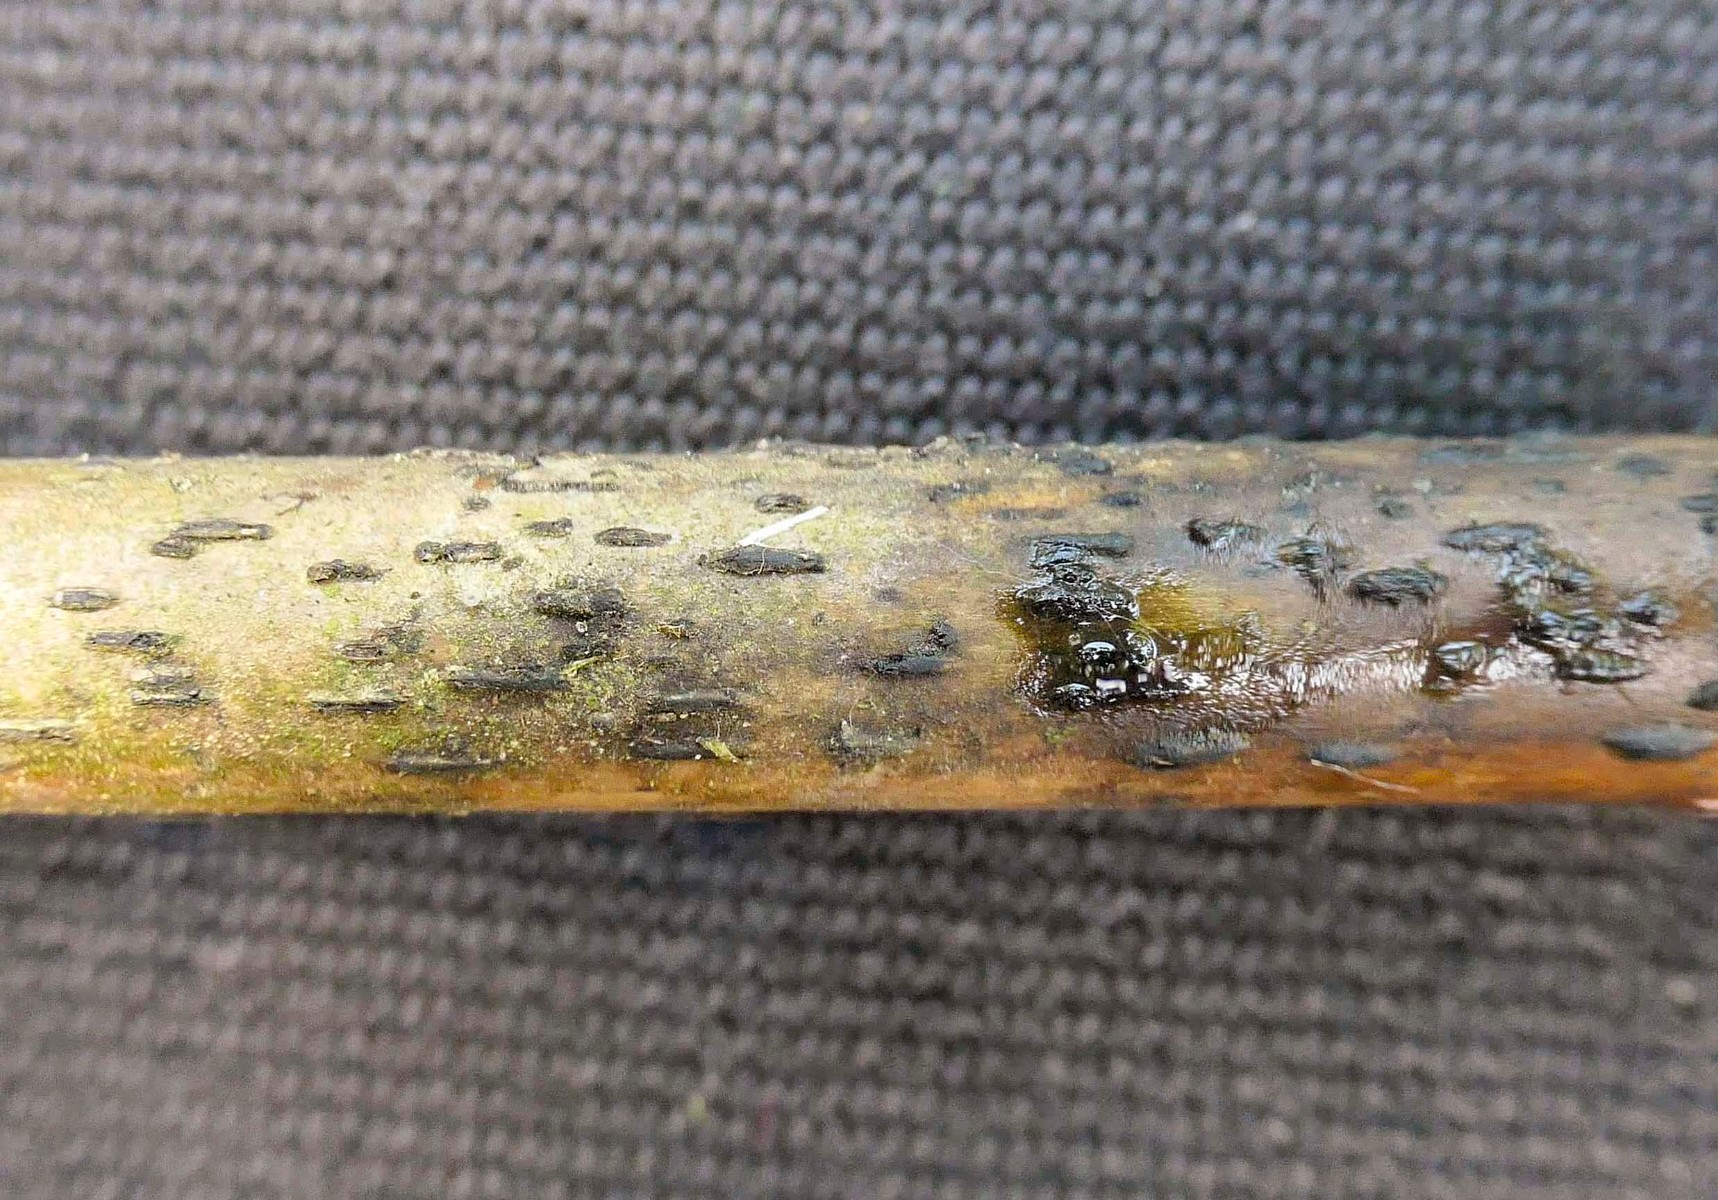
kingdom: Fungi
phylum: Ascomycota
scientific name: Ascomycota
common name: sæksvampe
